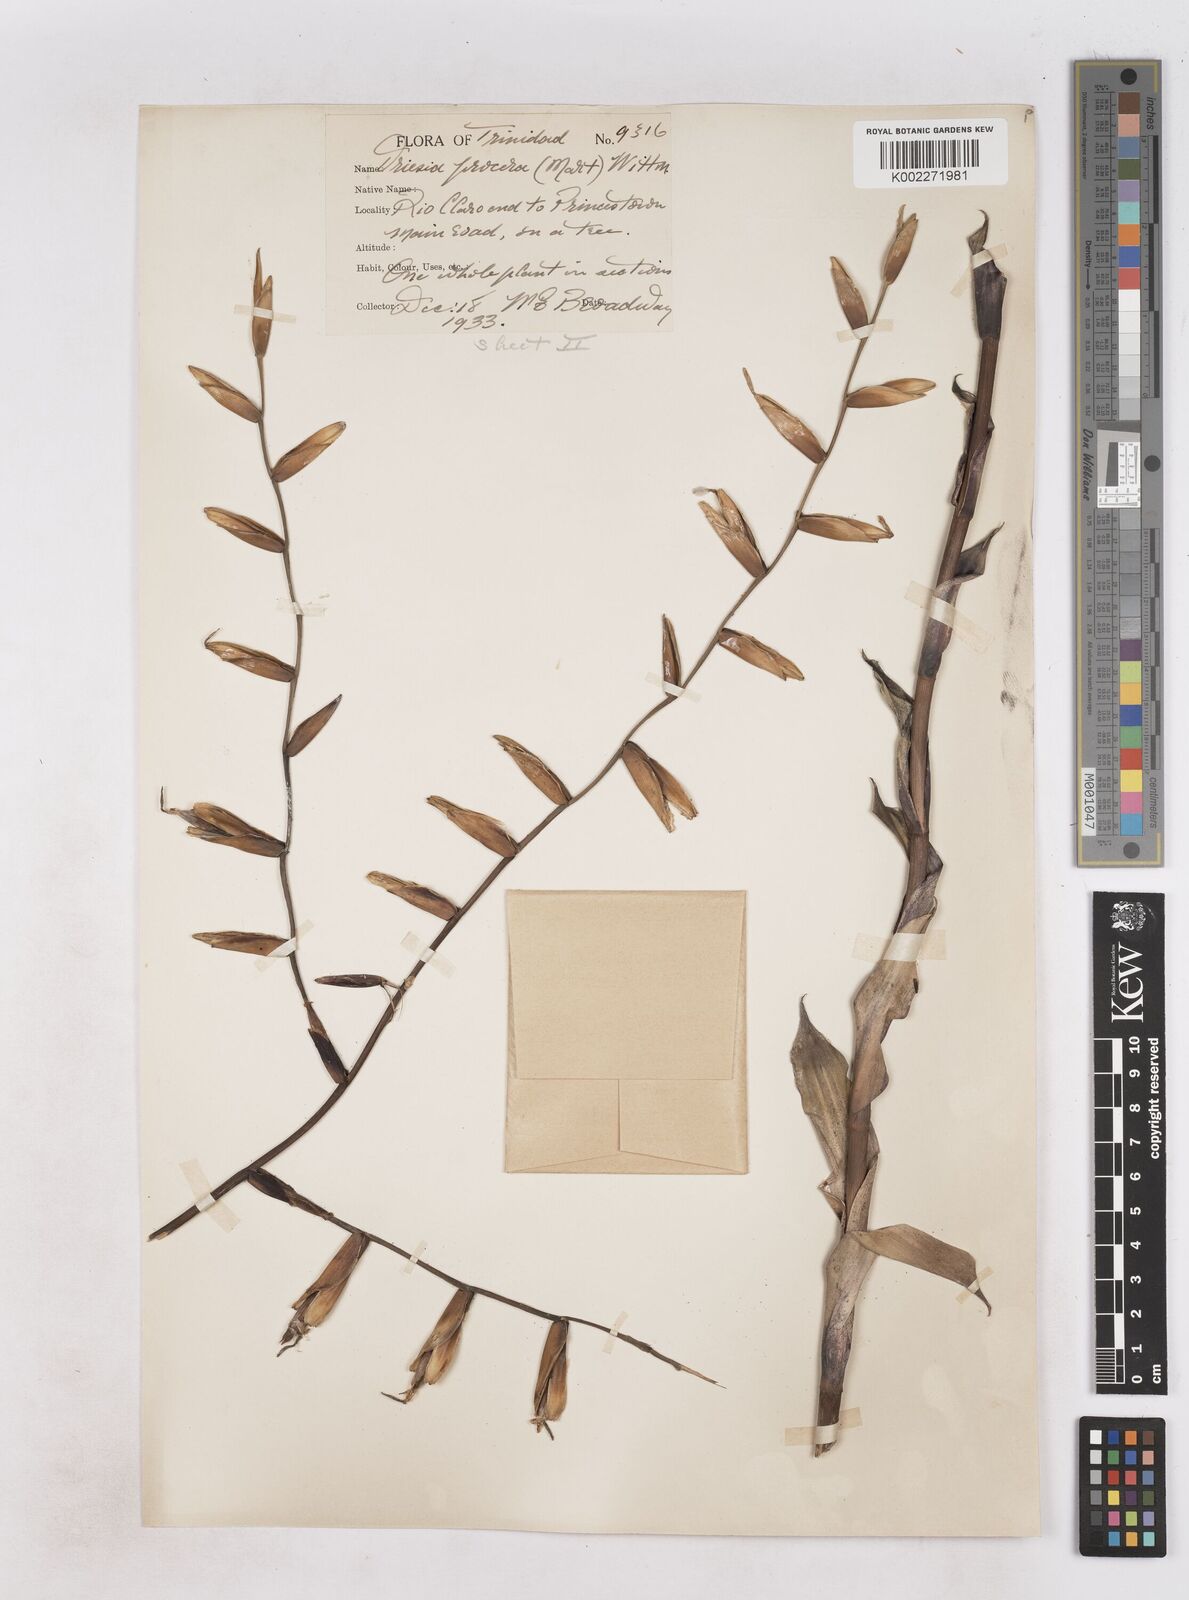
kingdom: Plantae
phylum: Tracheophyta
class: Liliopsida
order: Poales
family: Bromeliaceae
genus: Vriesea
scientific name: Vriesea procera
